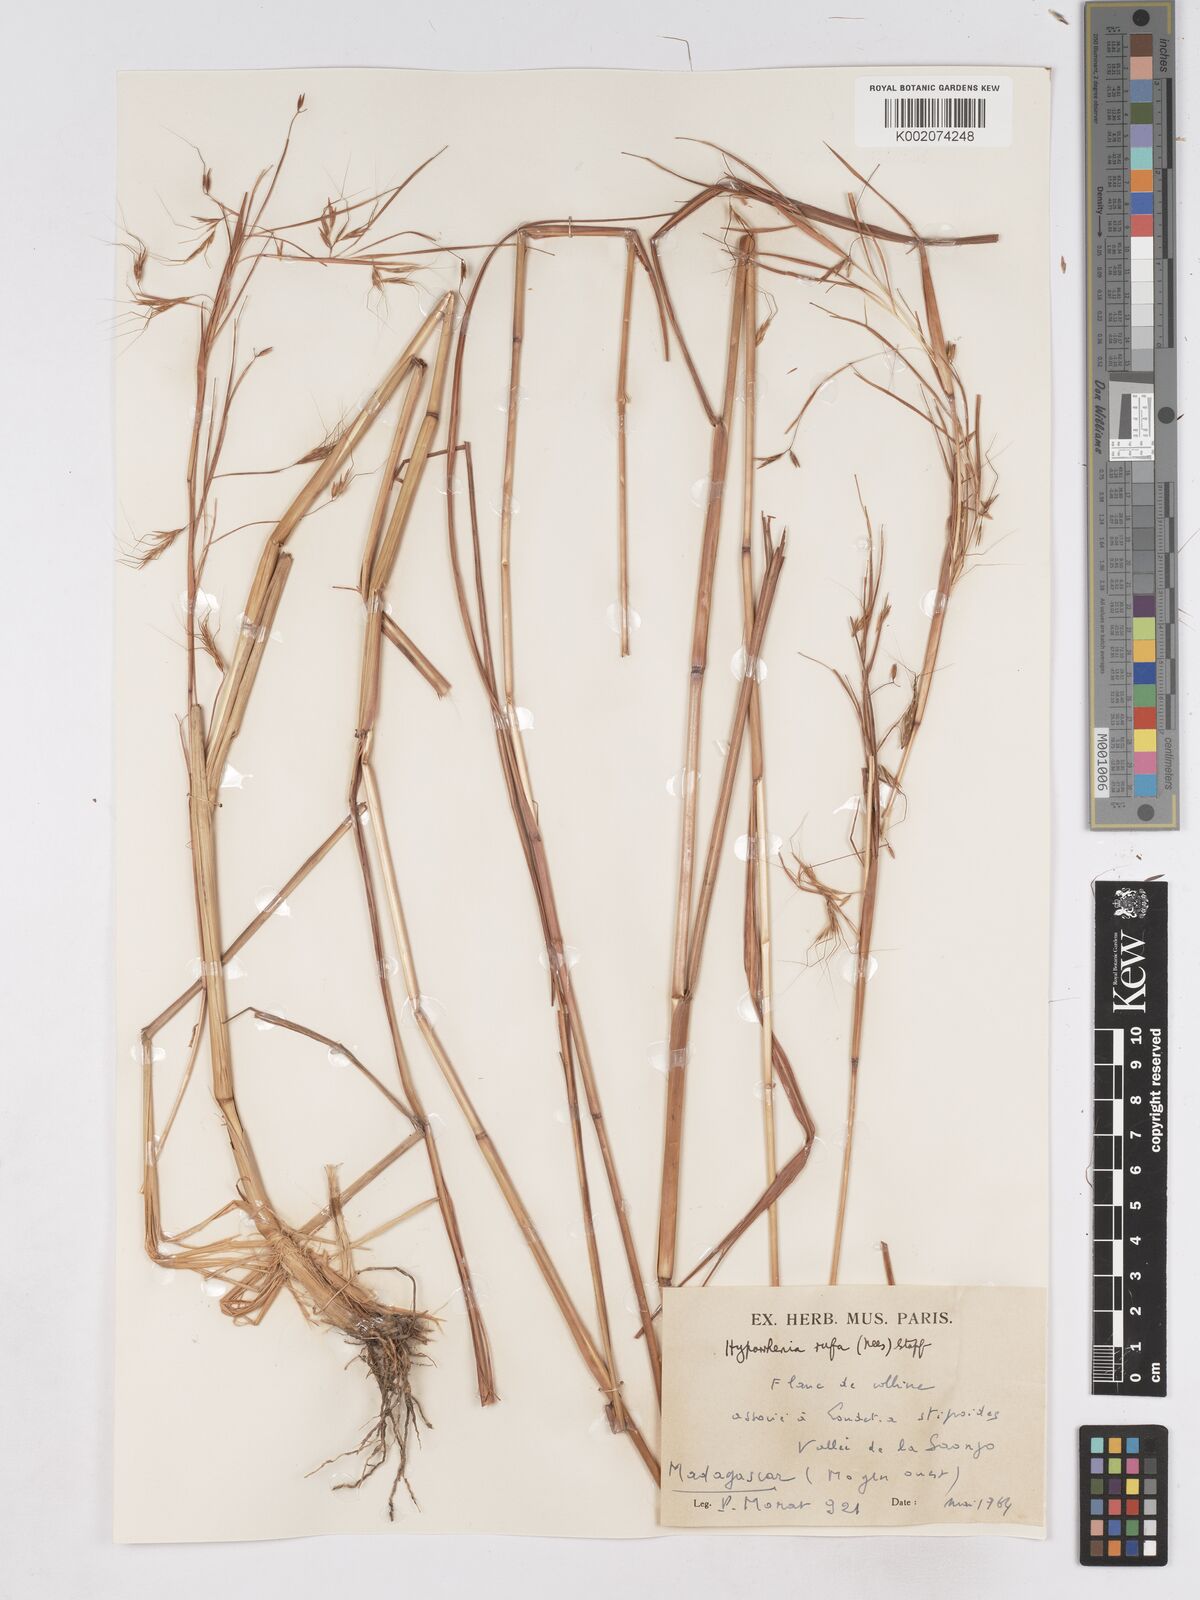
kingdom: Plantae
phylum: Tracheophyta
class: Liliopsida
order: Poales
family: Poaceae
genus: Hyparrhenia
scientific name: Hyparrhenia rufa
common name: Jaraguagrass
